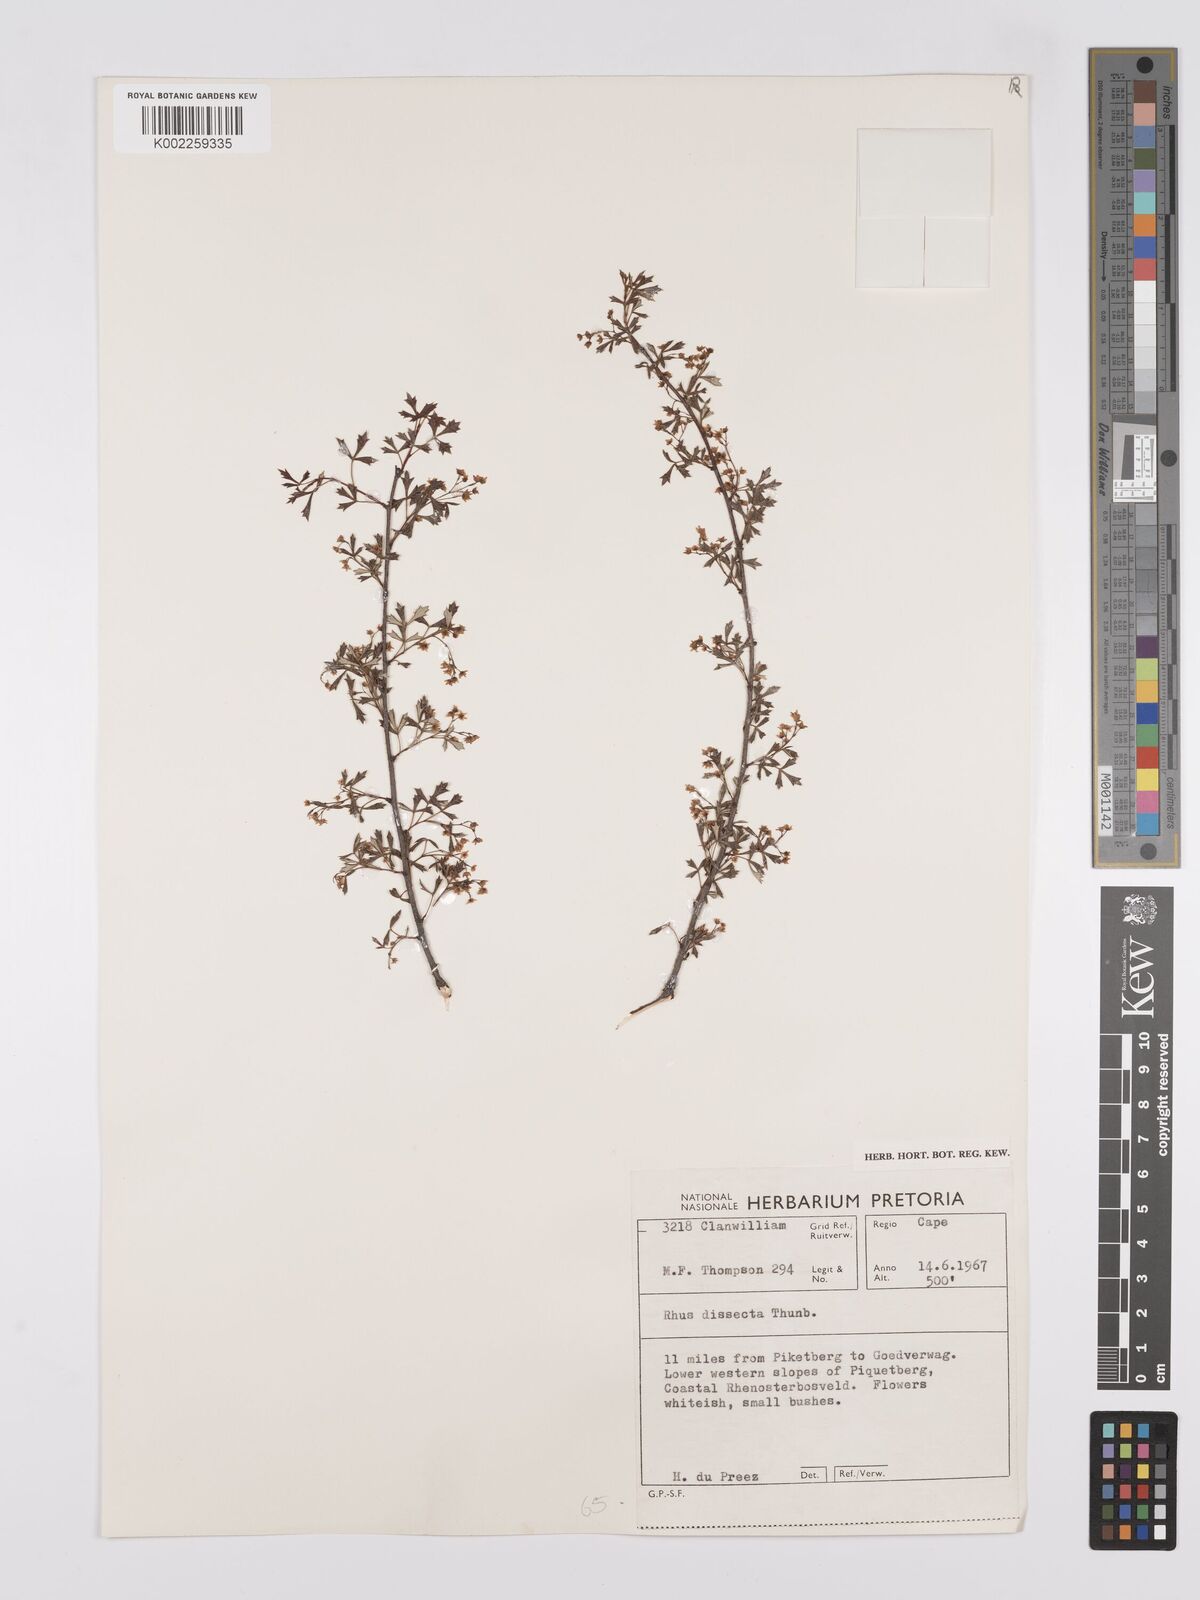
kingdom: Plantae
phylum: Tracheophyta
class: Magnoliopsida
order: Sapindales
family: Anacardiaceae
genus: Searsia
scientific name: Searsia dissecta
